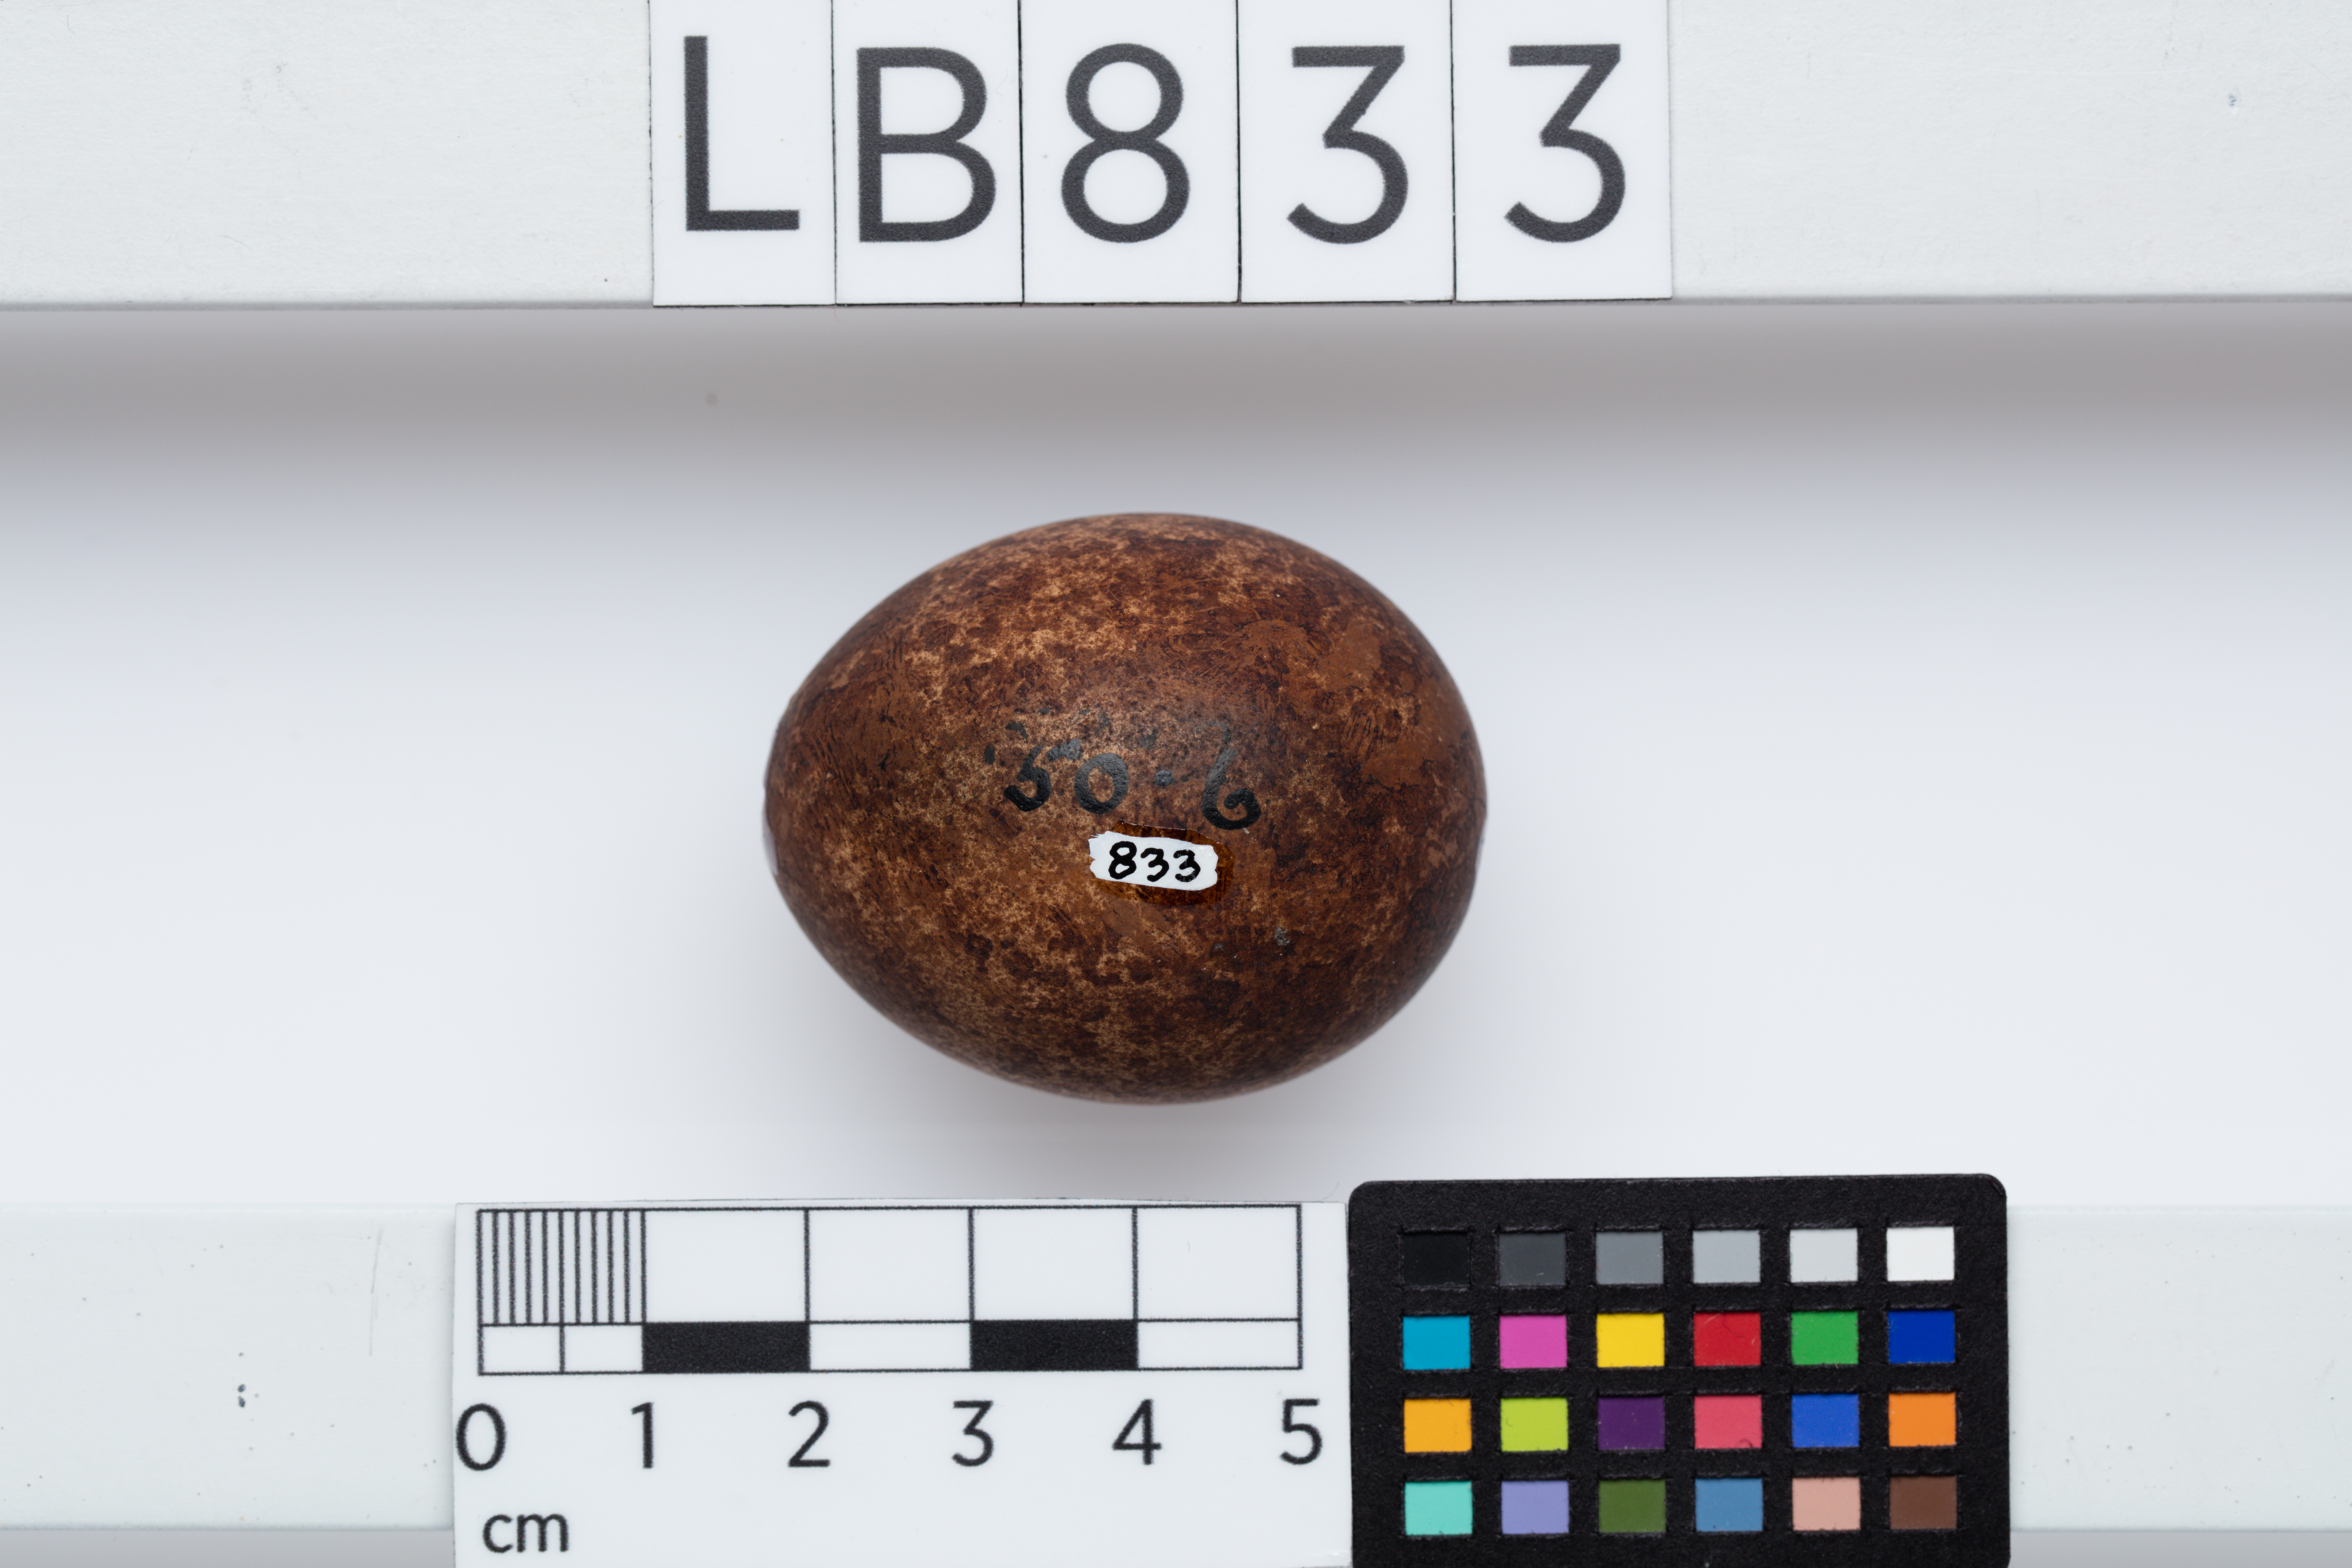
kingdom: Animalia
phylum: Chordata
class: Aves
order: Falconiformes
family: Falconidae
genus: Falco
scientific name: Falco novaeseelandiae
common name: New zealand falcon
